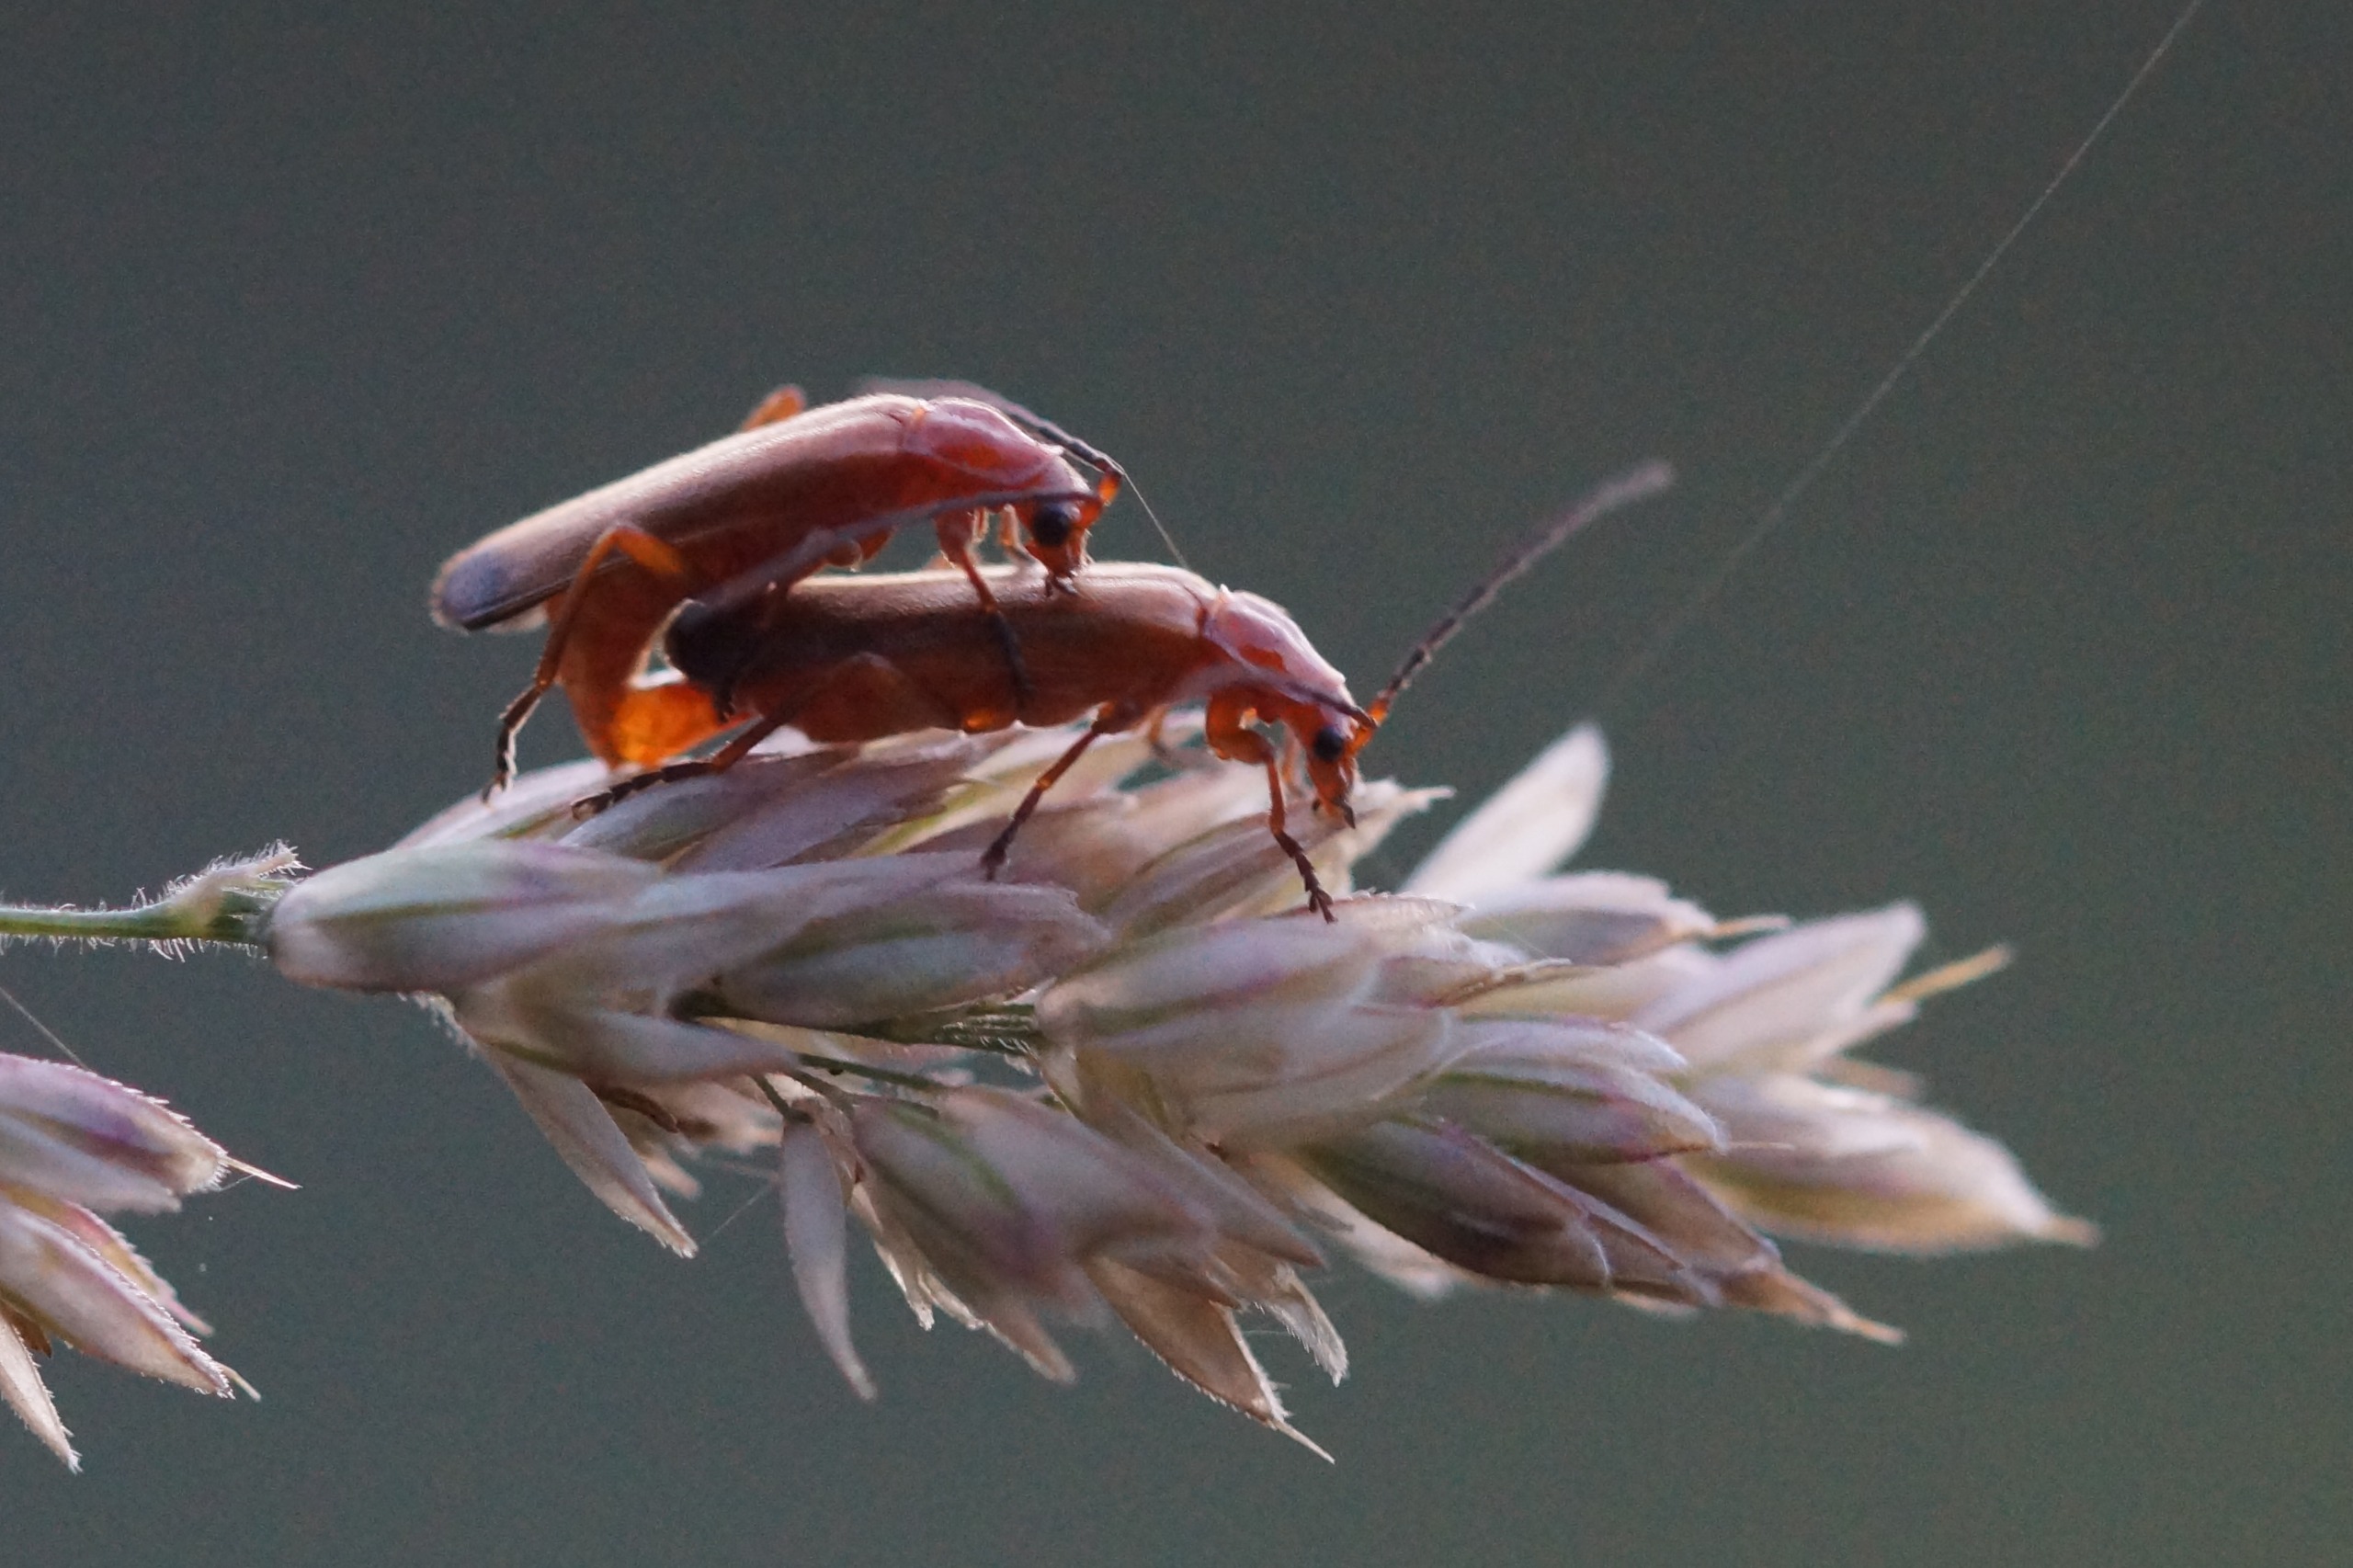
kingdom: Animalia
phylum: Arthropoda
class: Insecta
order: Coleoptera
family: Cantharidae
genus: Rhagonycha
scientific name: Rhagonycha fulva
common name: Præstebille
